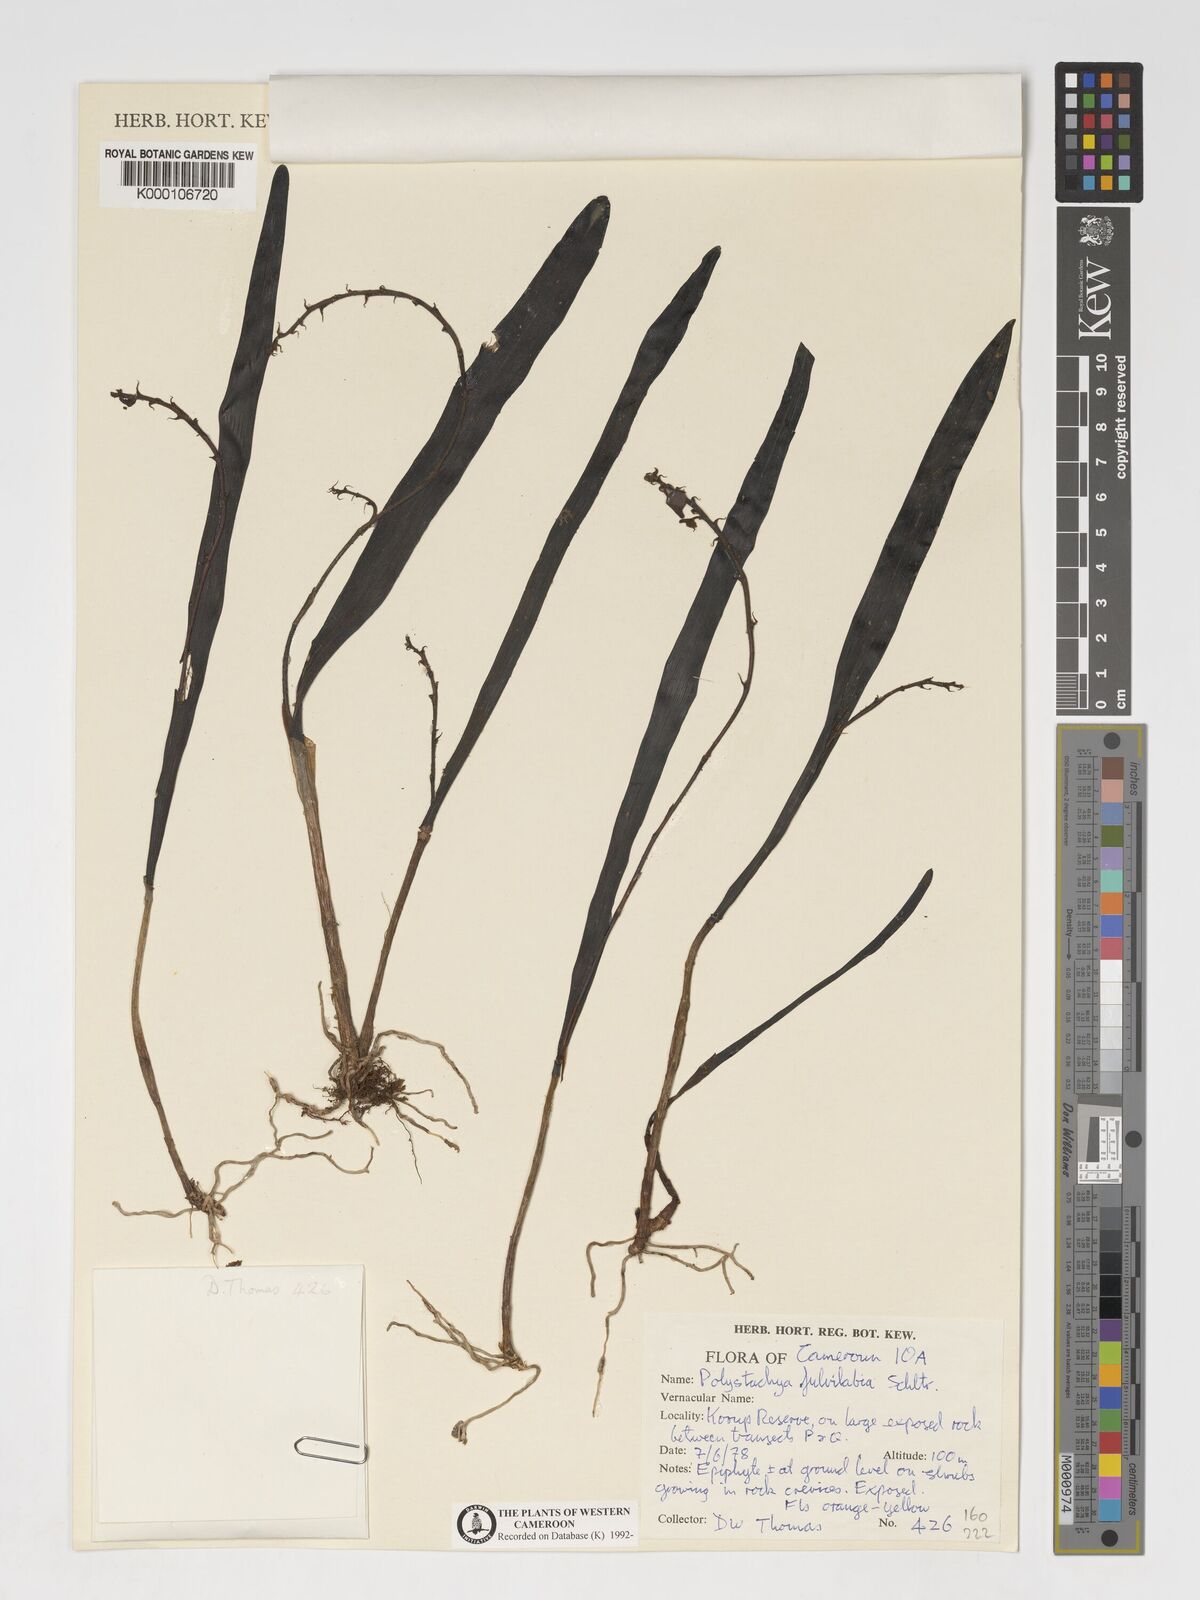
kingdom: Plantae
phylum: Tracheophyta
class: Liliopsida
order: Asparagales
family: Orchidaceae
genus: Polystachya
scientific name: Polystachya fulvilabia
